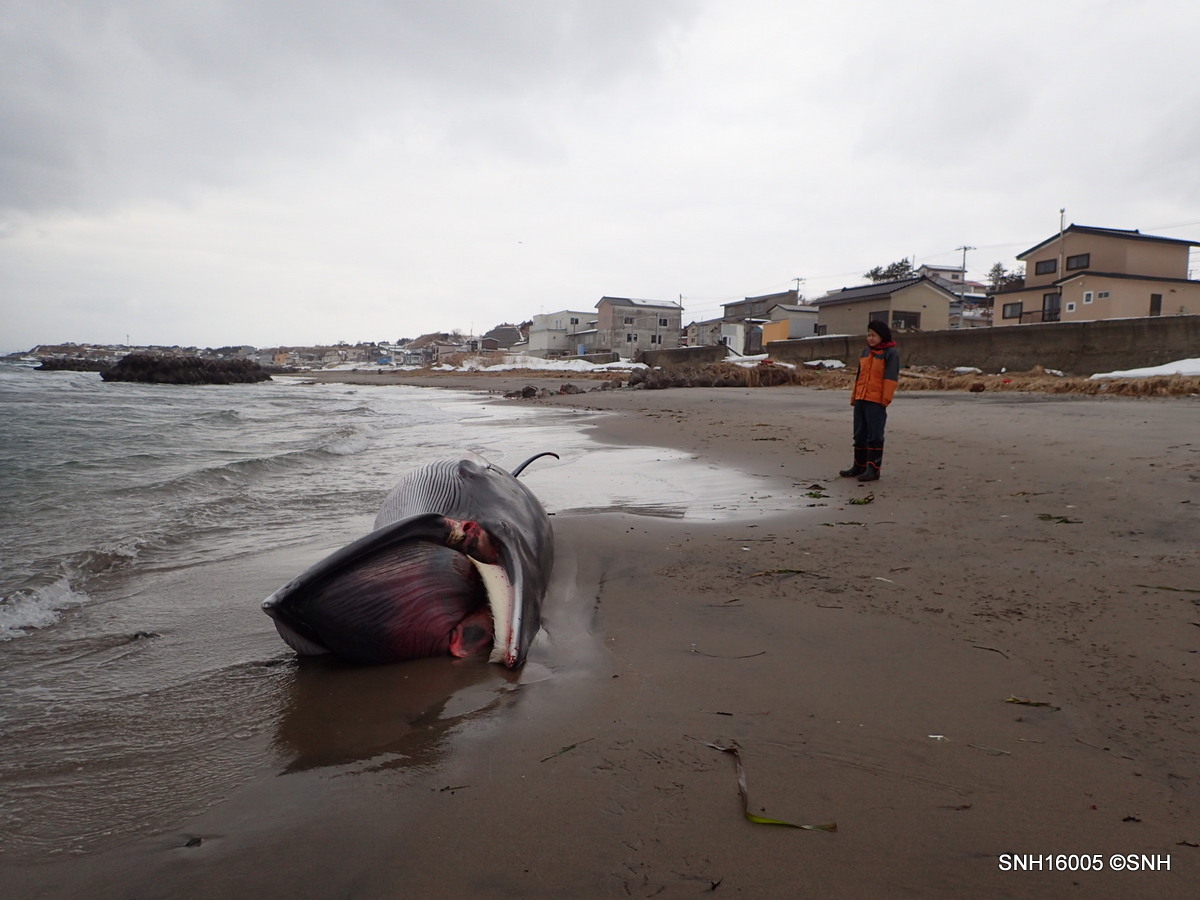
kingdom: Animalia
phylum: Chordata
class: Mammalia
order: Cetacea
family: Balaenopteridae
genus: Balaenoptera
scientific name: Balaenoptera acutorostrata
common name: Minke whale
